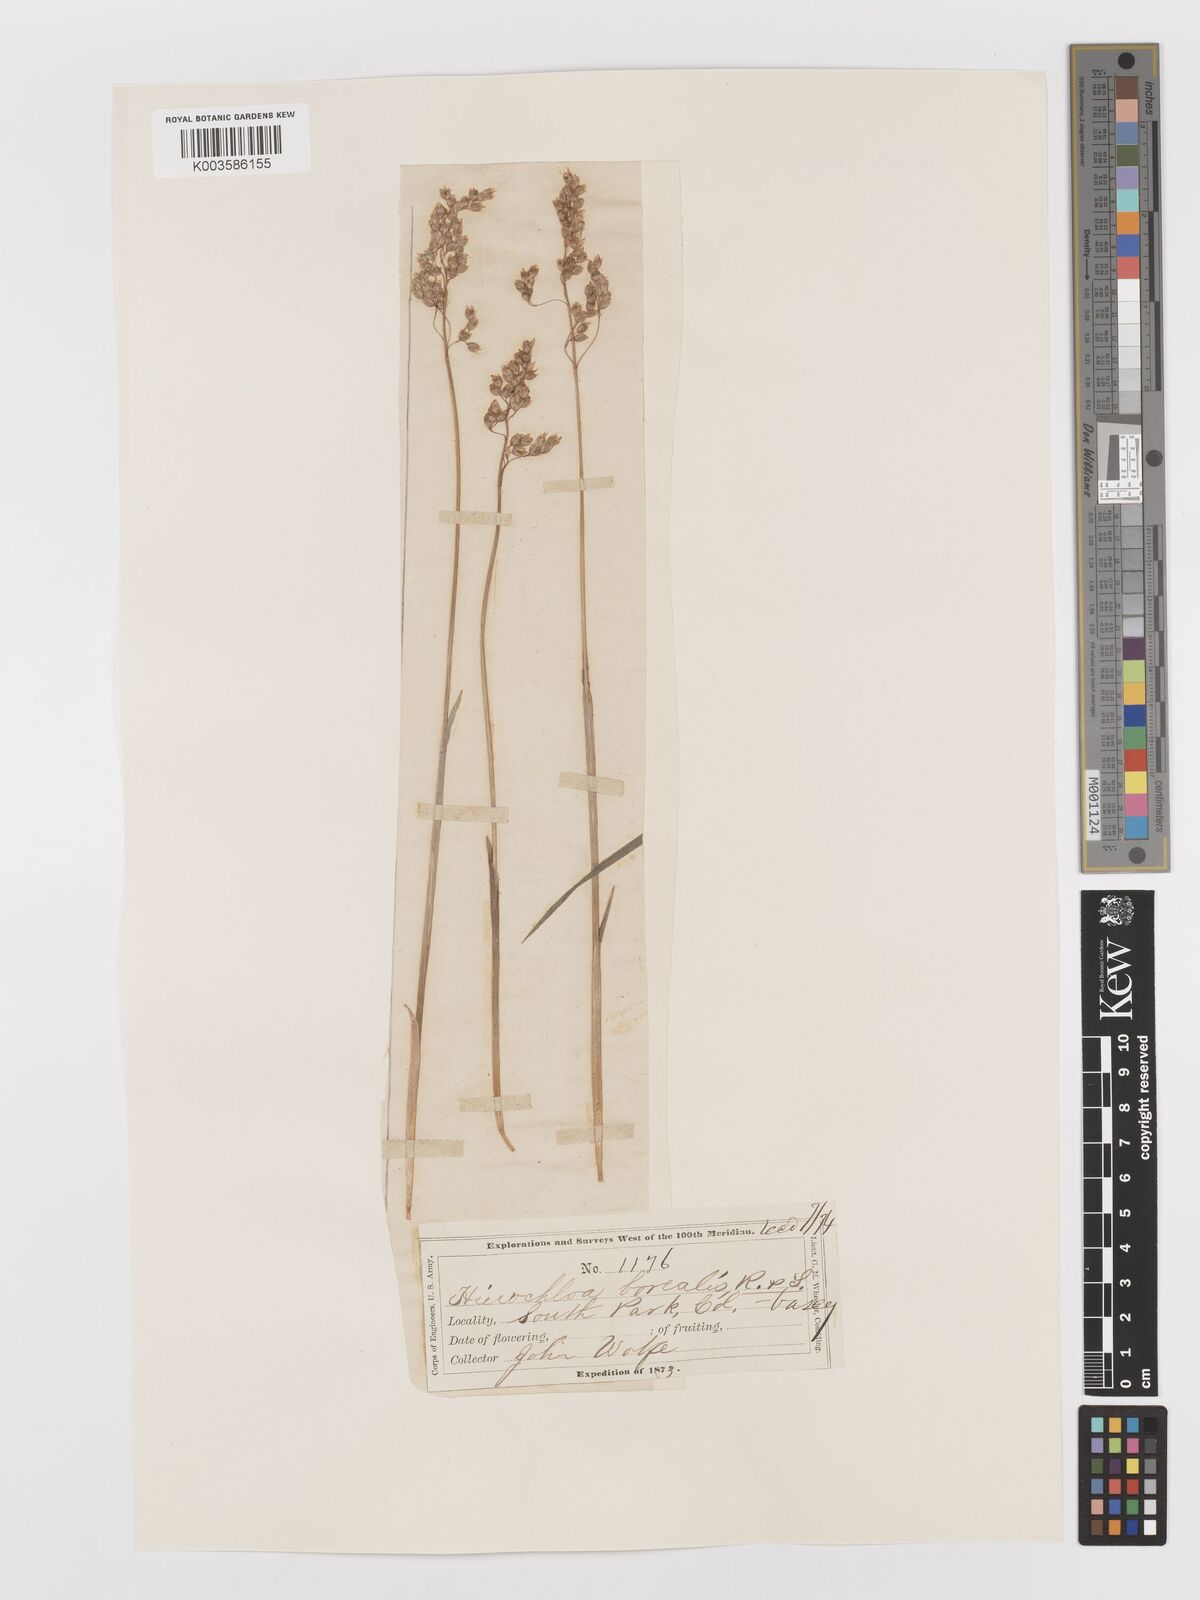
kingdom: Plantae
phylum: Tracheophyta
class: Liliopsida
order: Poales
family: Poaceae
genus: Anthoxanthum
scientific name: Anthoxanthum nitens
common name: Holy grass
